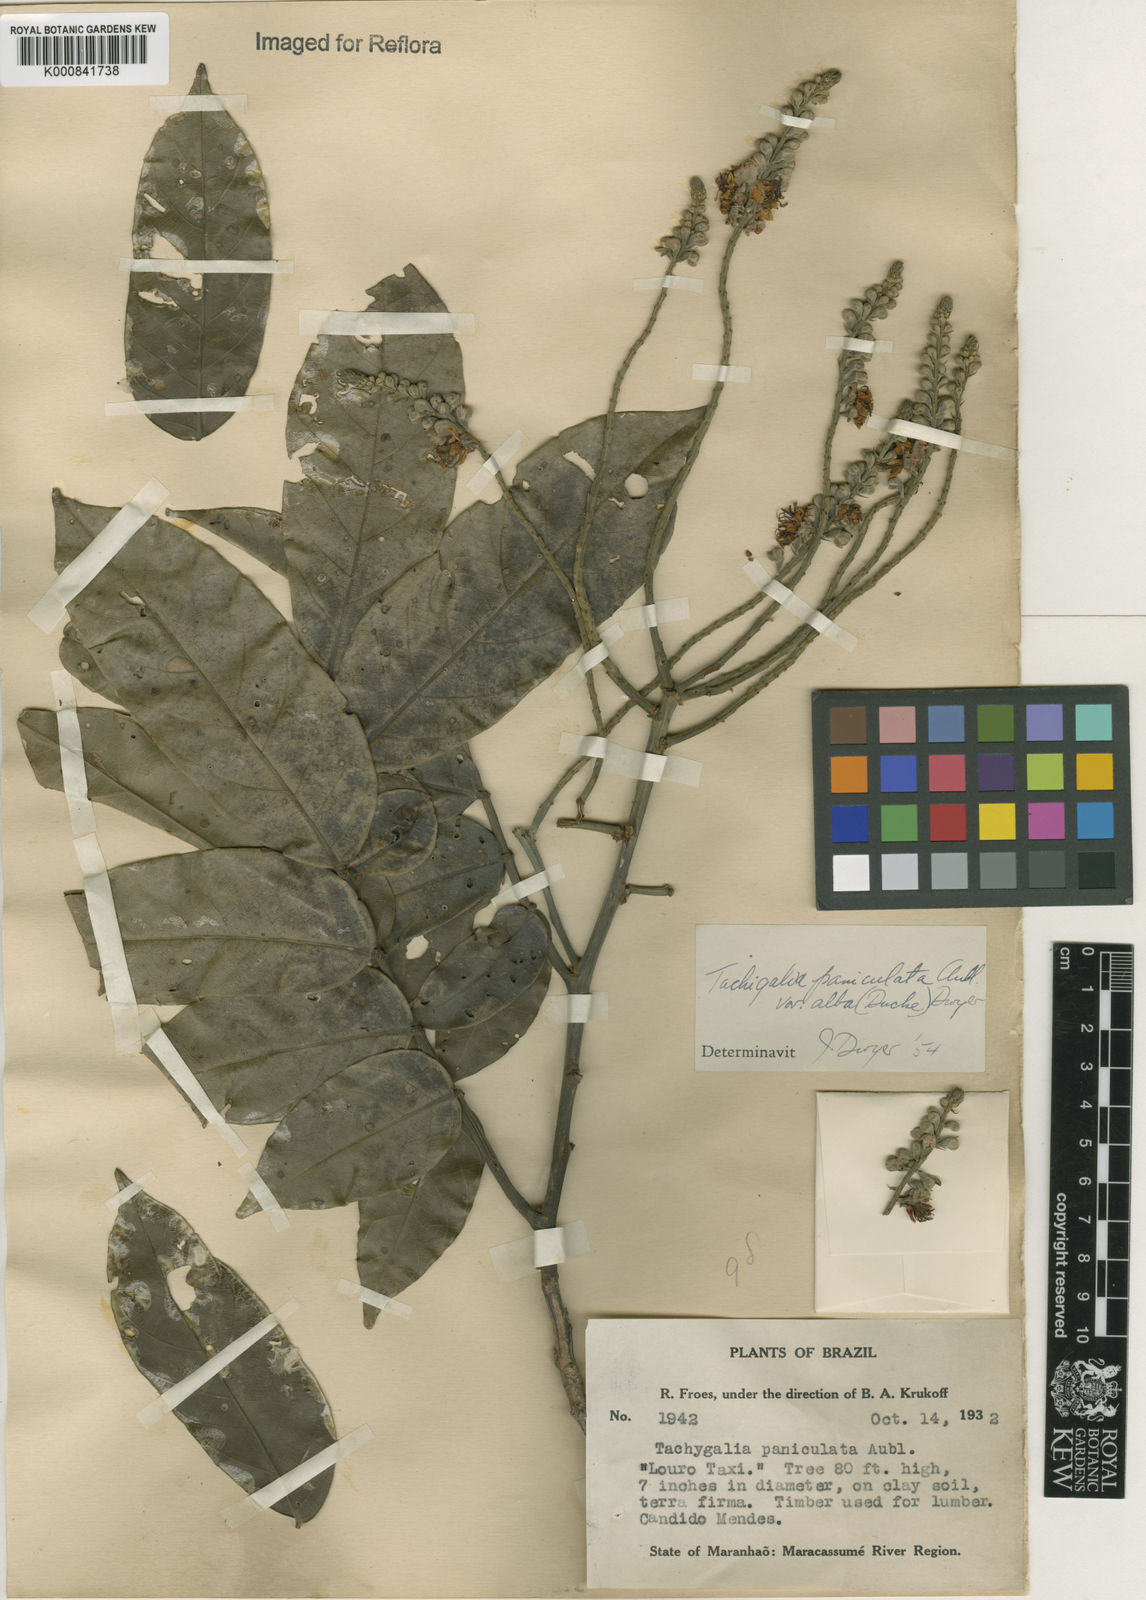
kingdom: Plantae
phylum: Tracheophyta
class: Magnoliopsida
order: Fabales
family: Fabaceae
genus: Tachigali
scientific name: Tachigali paniculata
